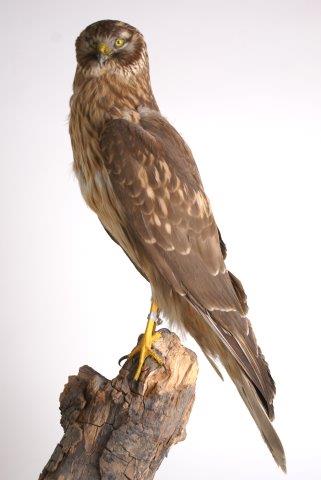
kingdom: Animalia
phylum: Chordata
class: Aves
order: Accipitriformes
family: Accipitridae
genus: Circus
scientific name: Circus cyaneus
